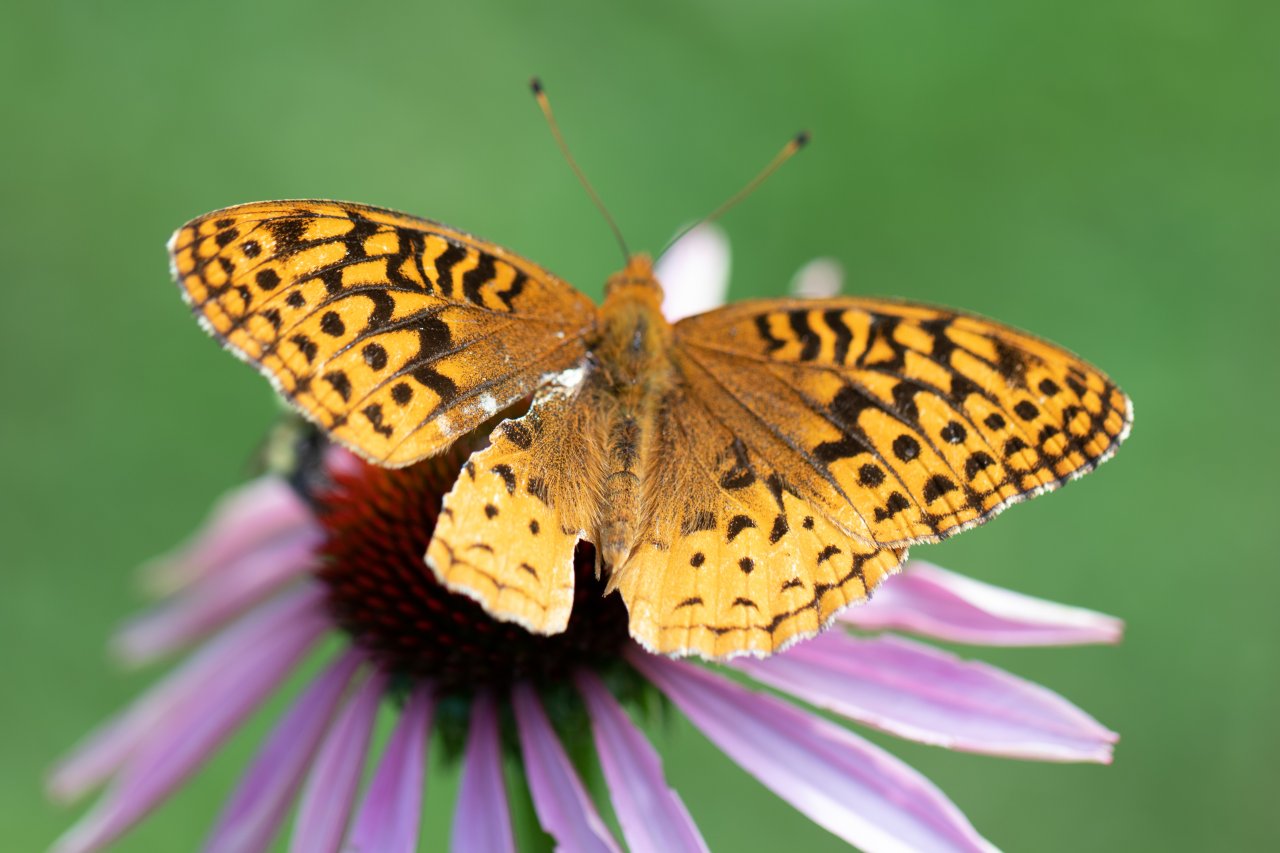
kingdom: Animalia
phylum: Arthropoda
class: Insecta
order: Lepidoptera
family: Nymphalidae
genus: Speyeria
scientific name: Speyeria cybele
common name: Great Spangled Fritillary
